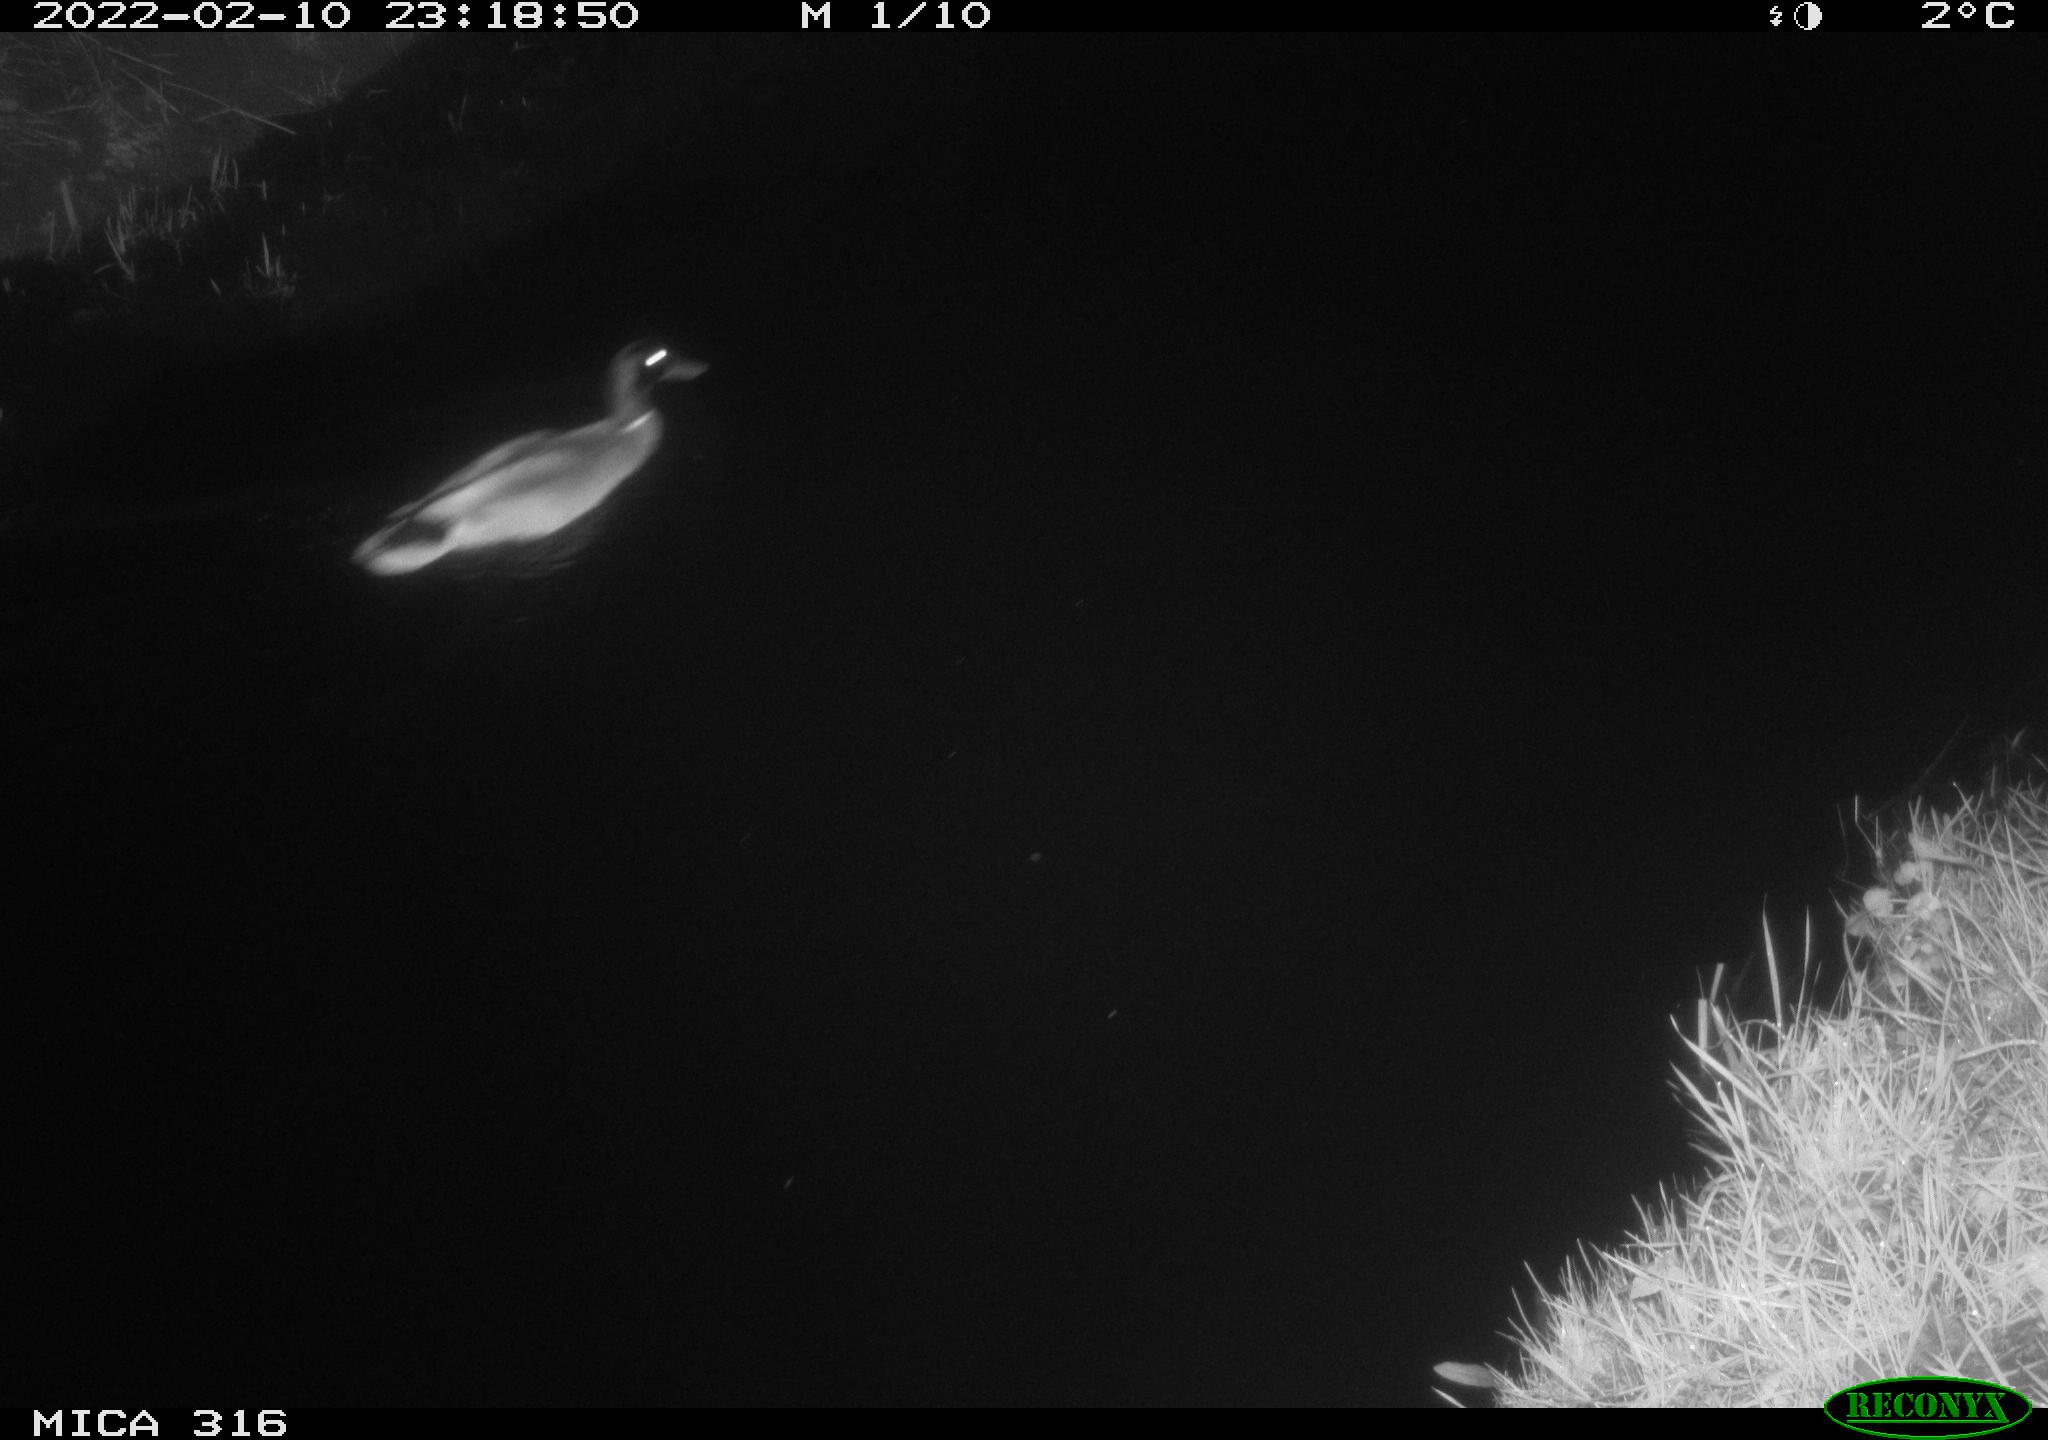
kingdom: Animalia
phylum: Chordata
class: Aves
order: Anseriformes
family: Anatidae
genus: Anas
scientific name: Anas platyrhynchos
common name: Mallard
